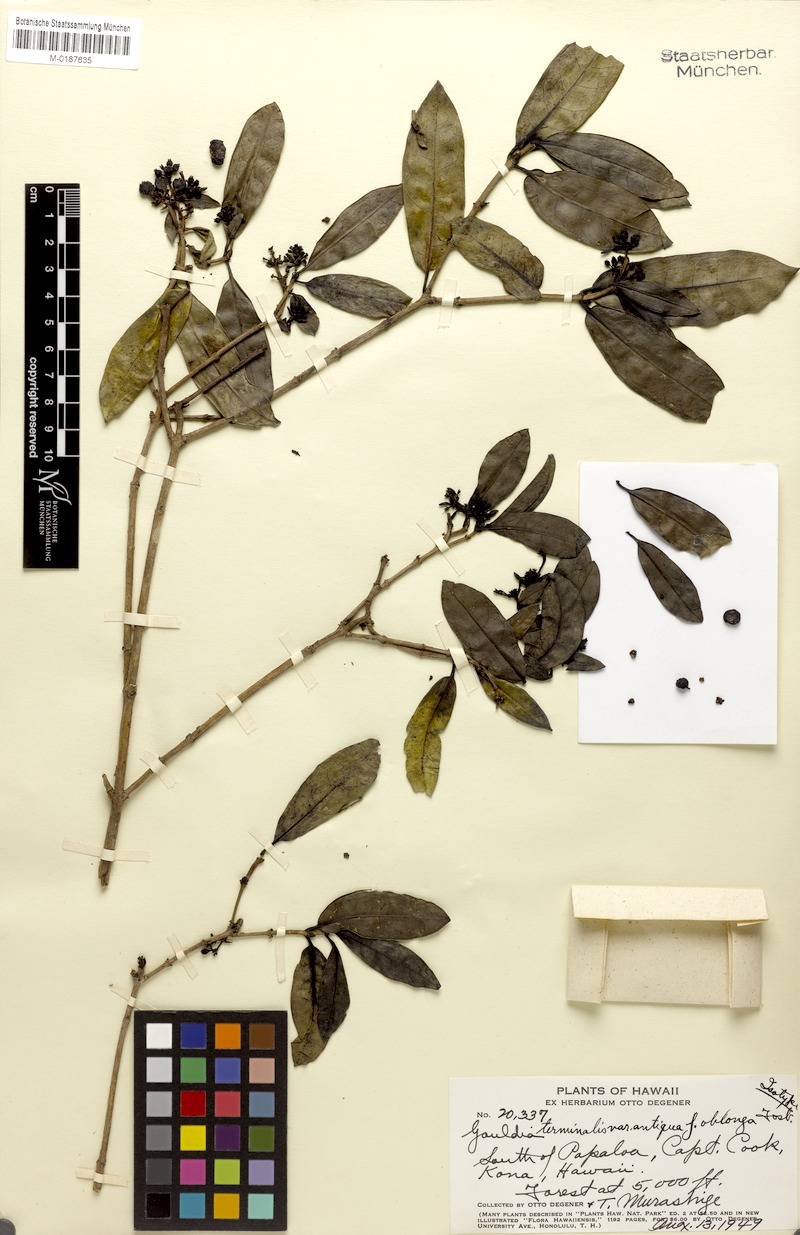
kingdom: Plantae
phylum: Tracheophyta
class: Magnoliopsida
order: Gentianales
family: Rubiaceae
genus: Kadua
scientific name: Kadua affinis
